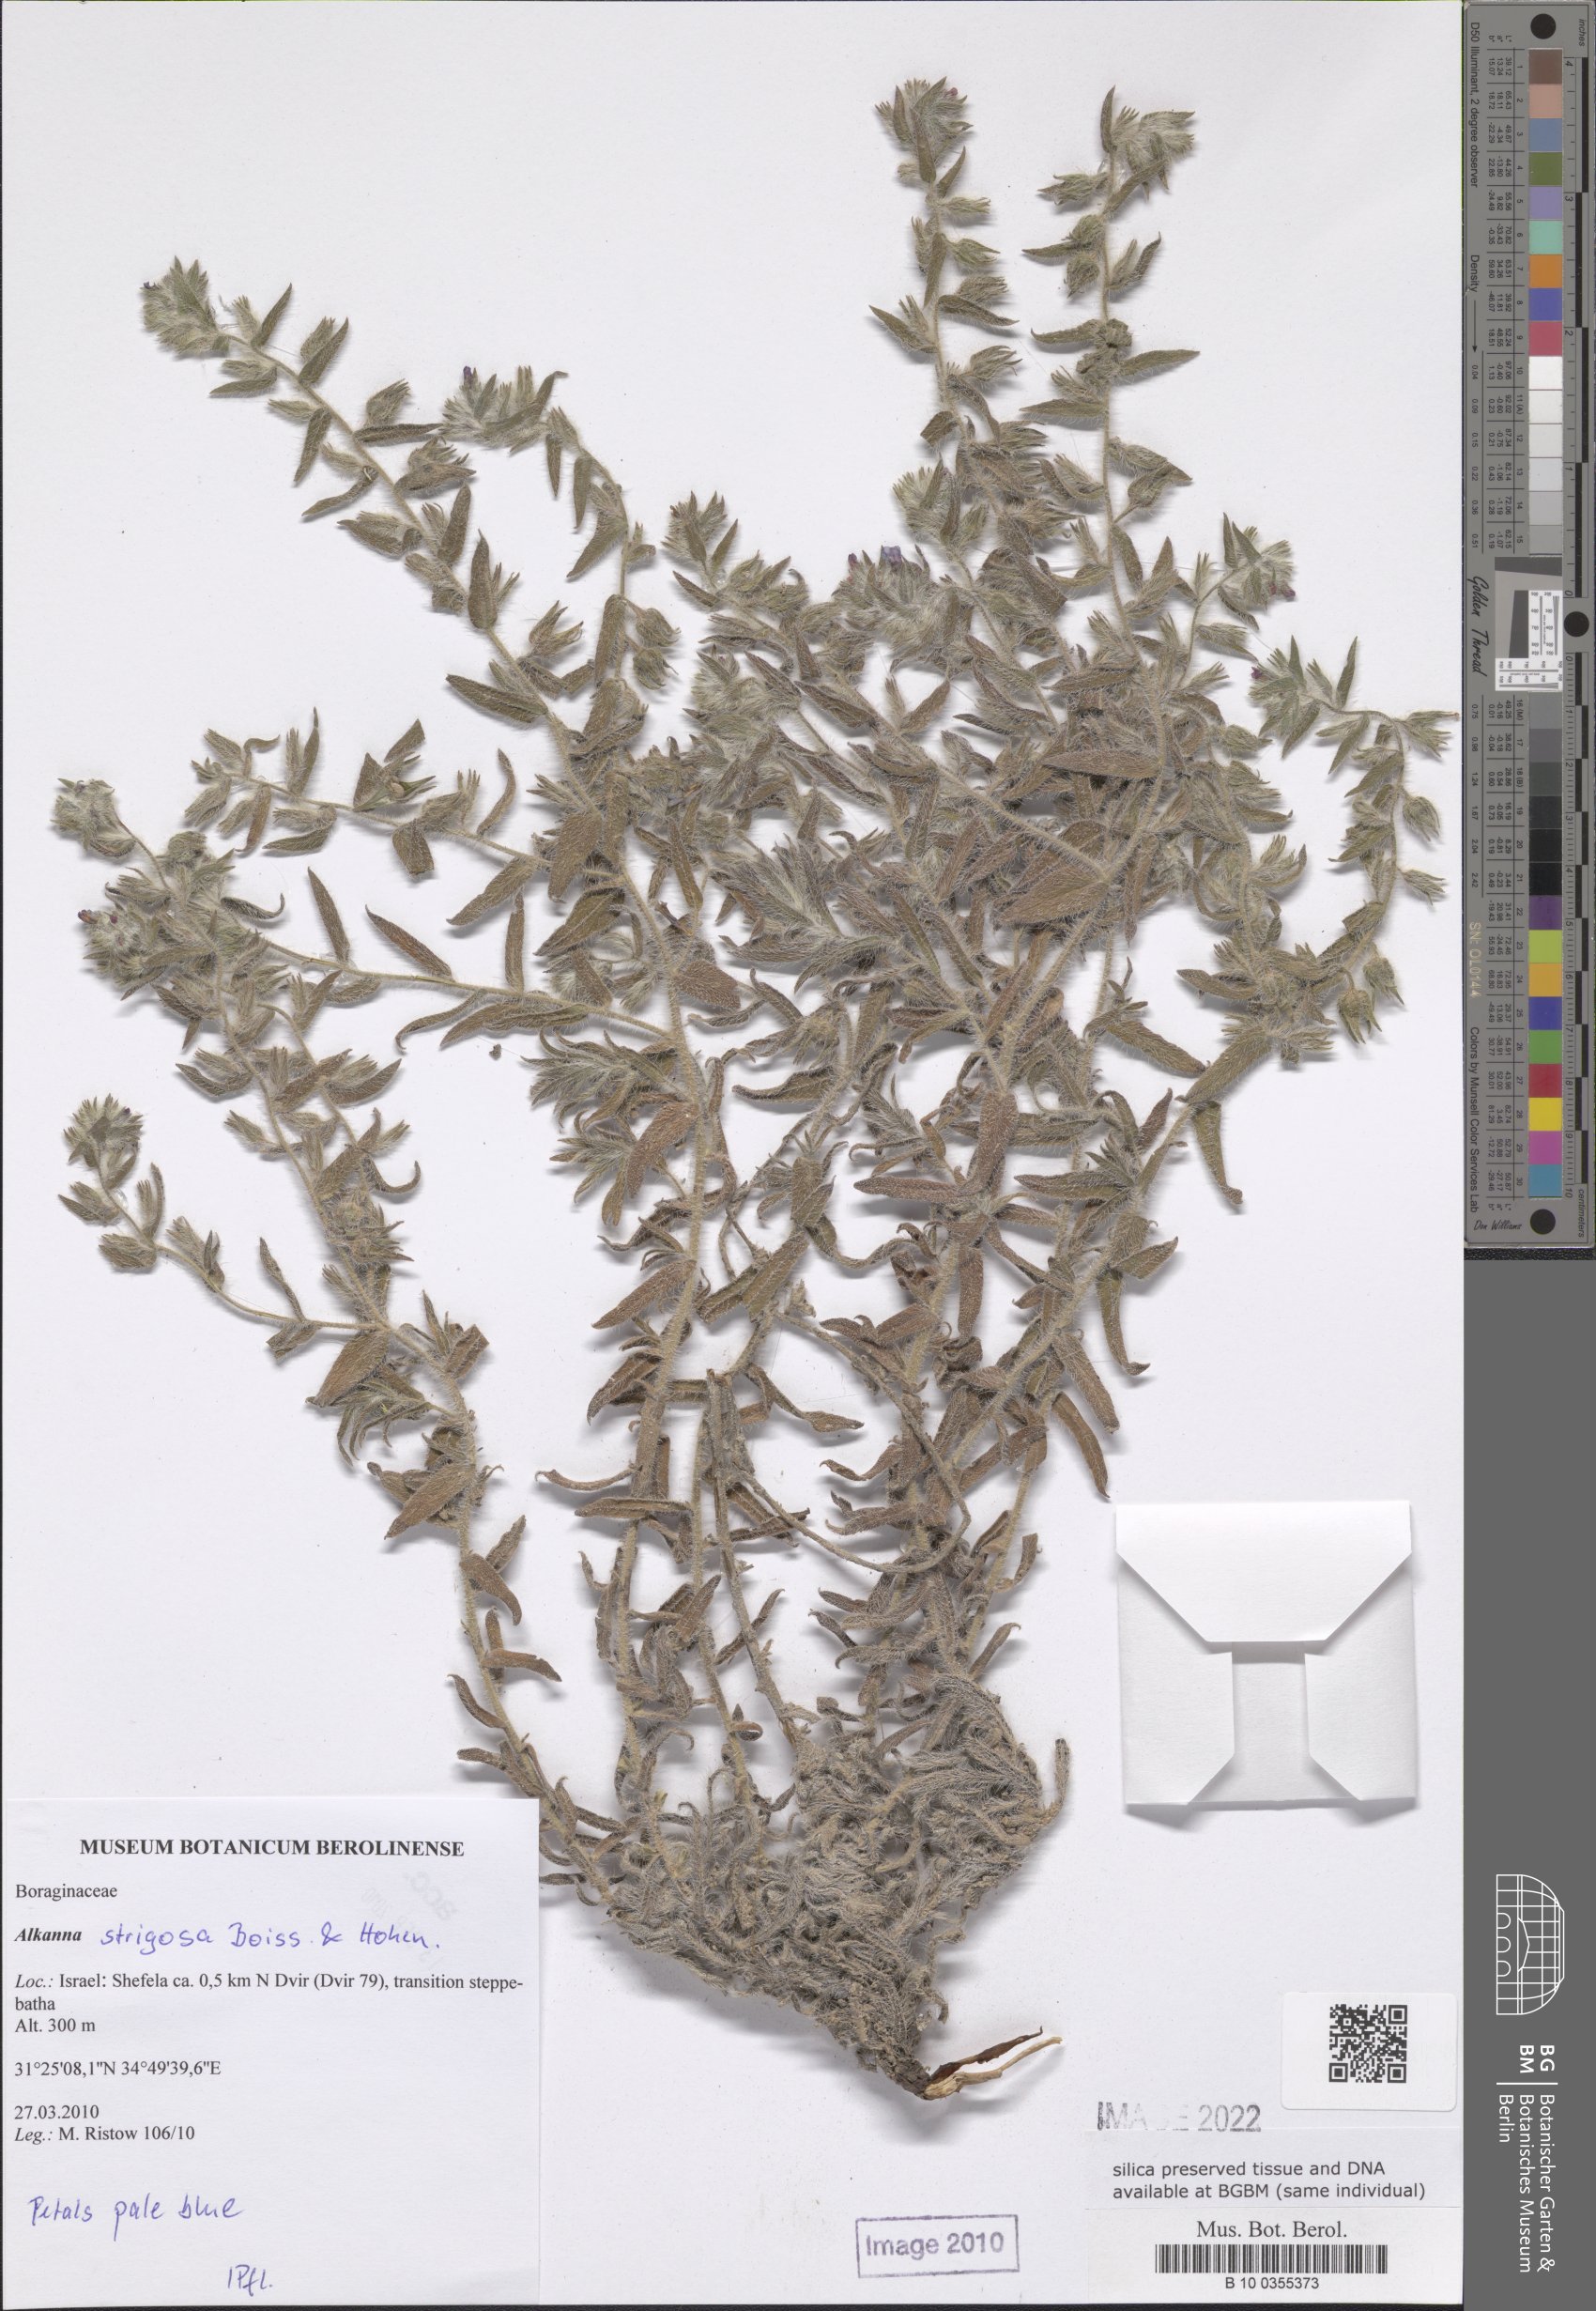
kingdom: Plantae
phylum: Tracheophyta
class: Magnoliopsida
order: Boraginales
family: Boraginaceae
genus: Alkanna
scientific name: Alkanna strigosa
